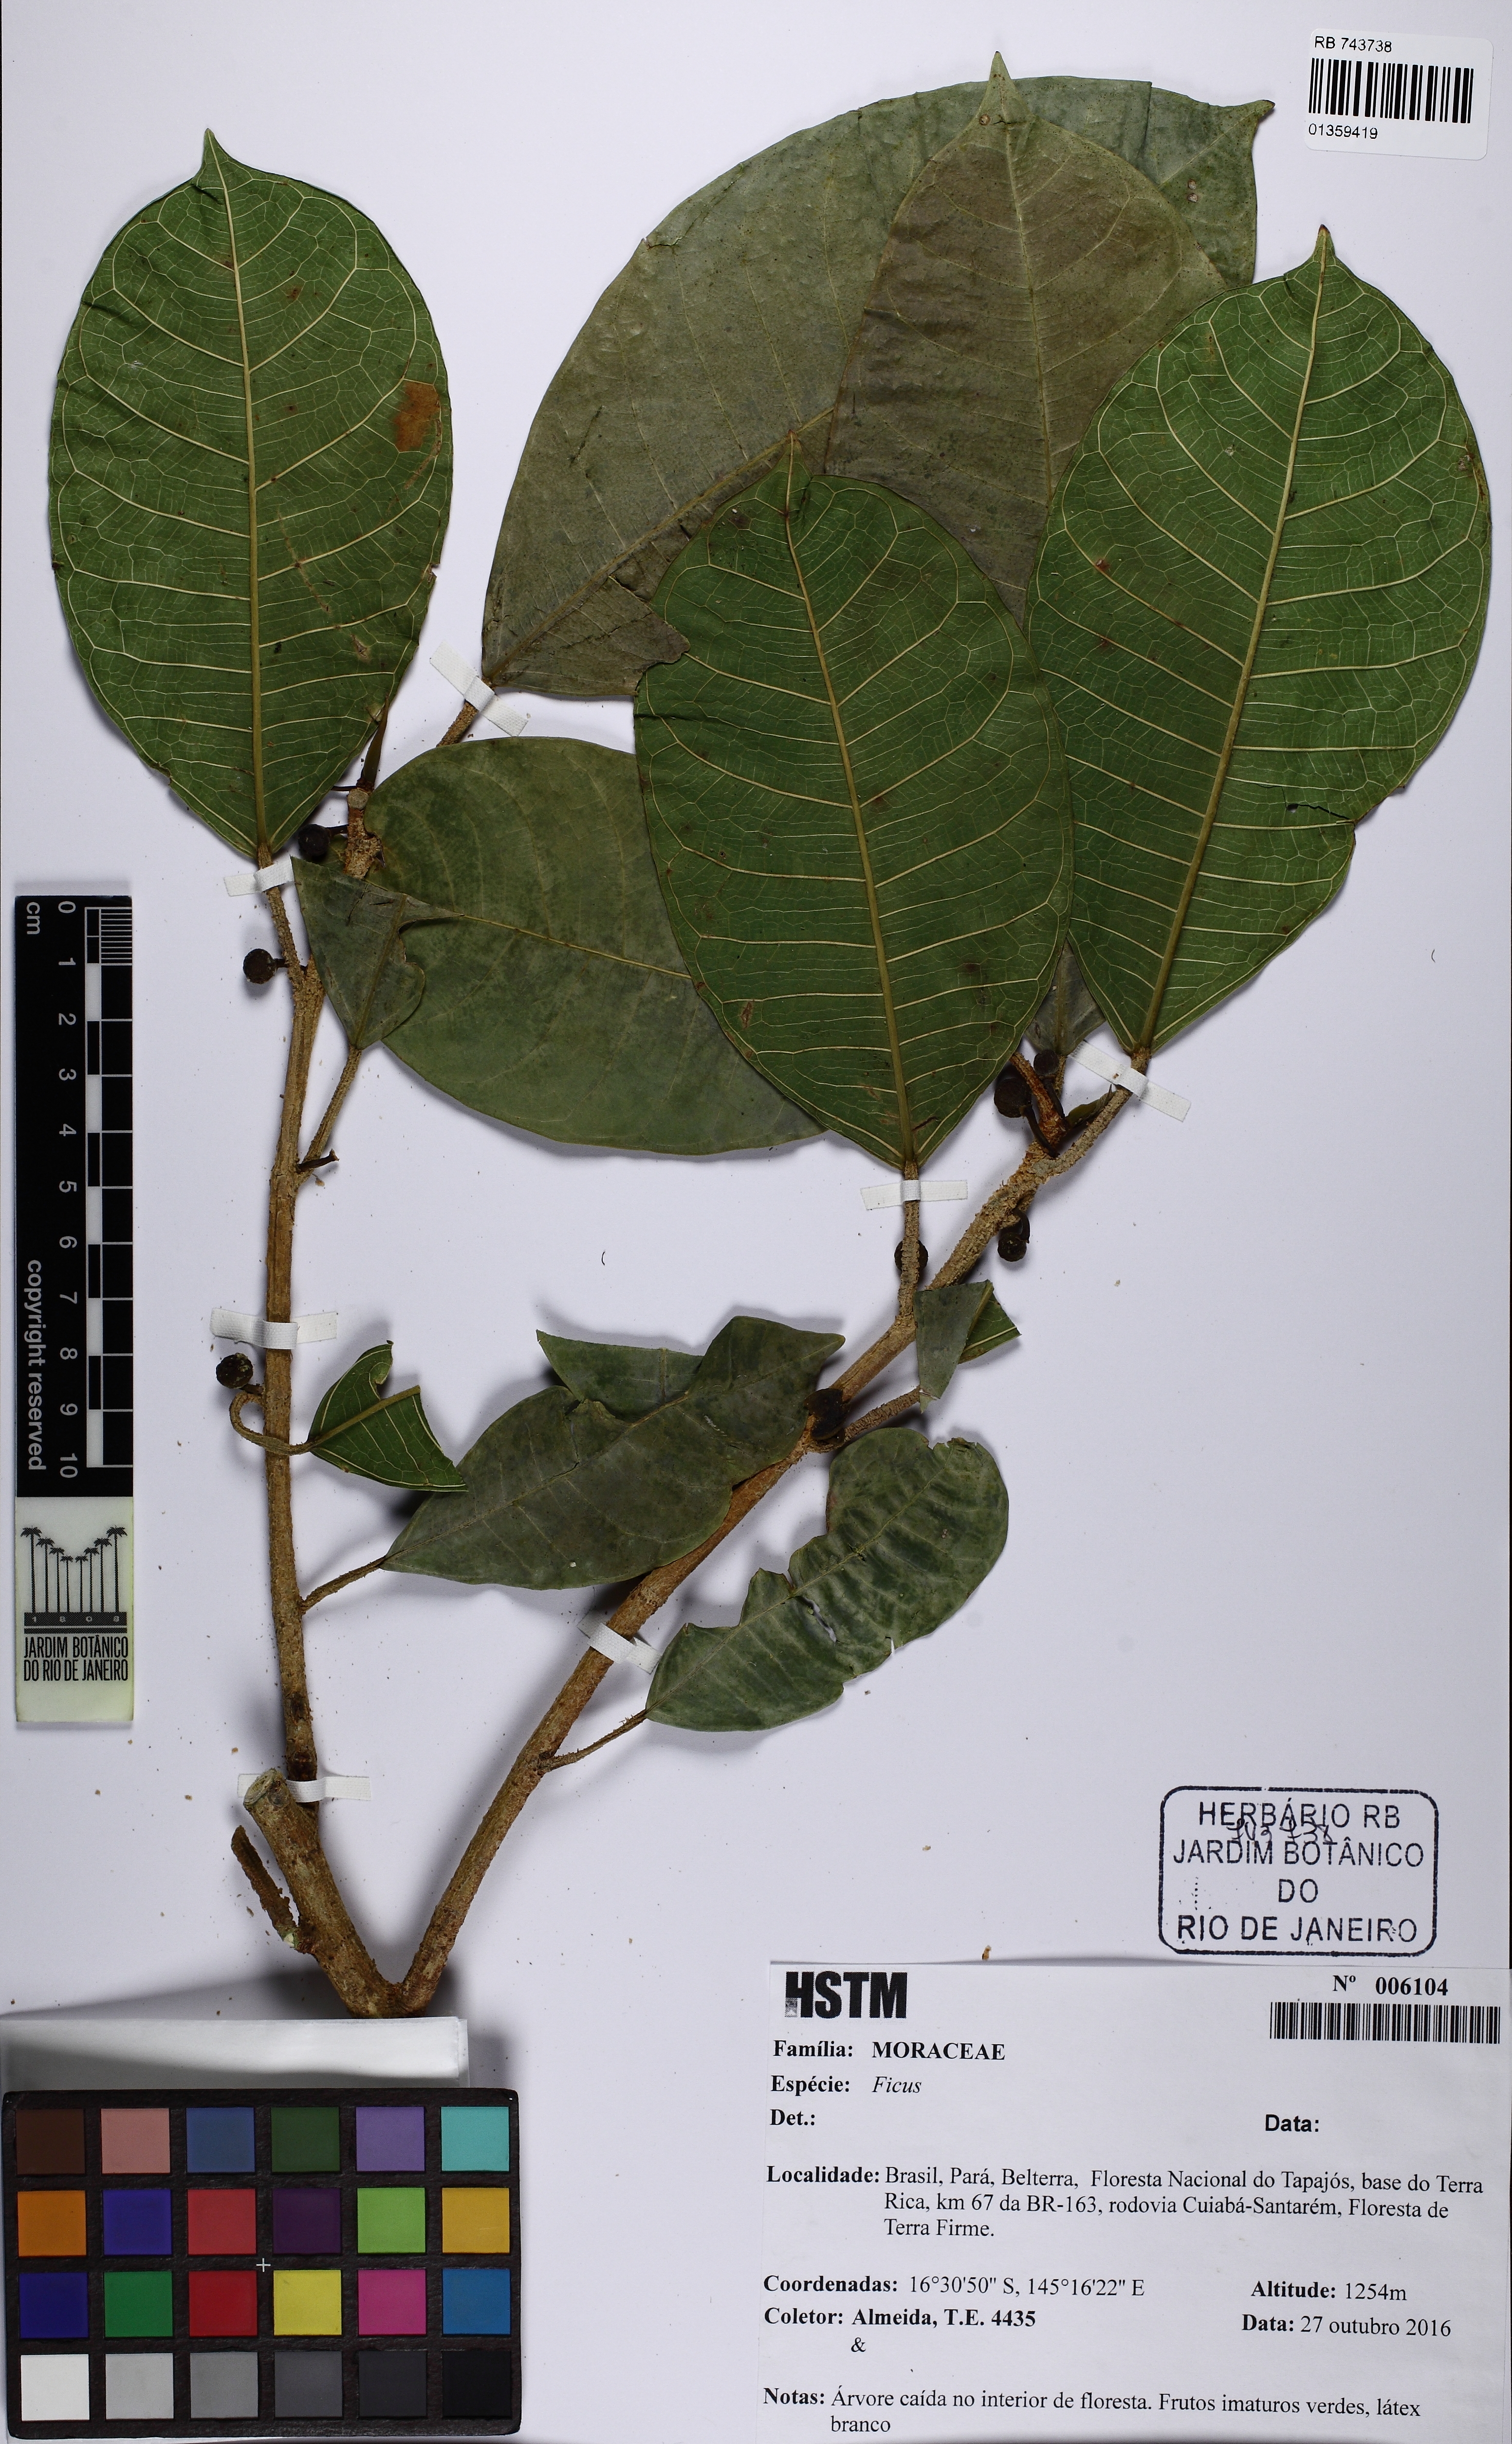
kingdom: Plantae
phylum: Tracheophyta
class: Magnoliopsida
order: Rosales
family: Moraceae
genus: Ficus
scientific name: Ficus maxima
